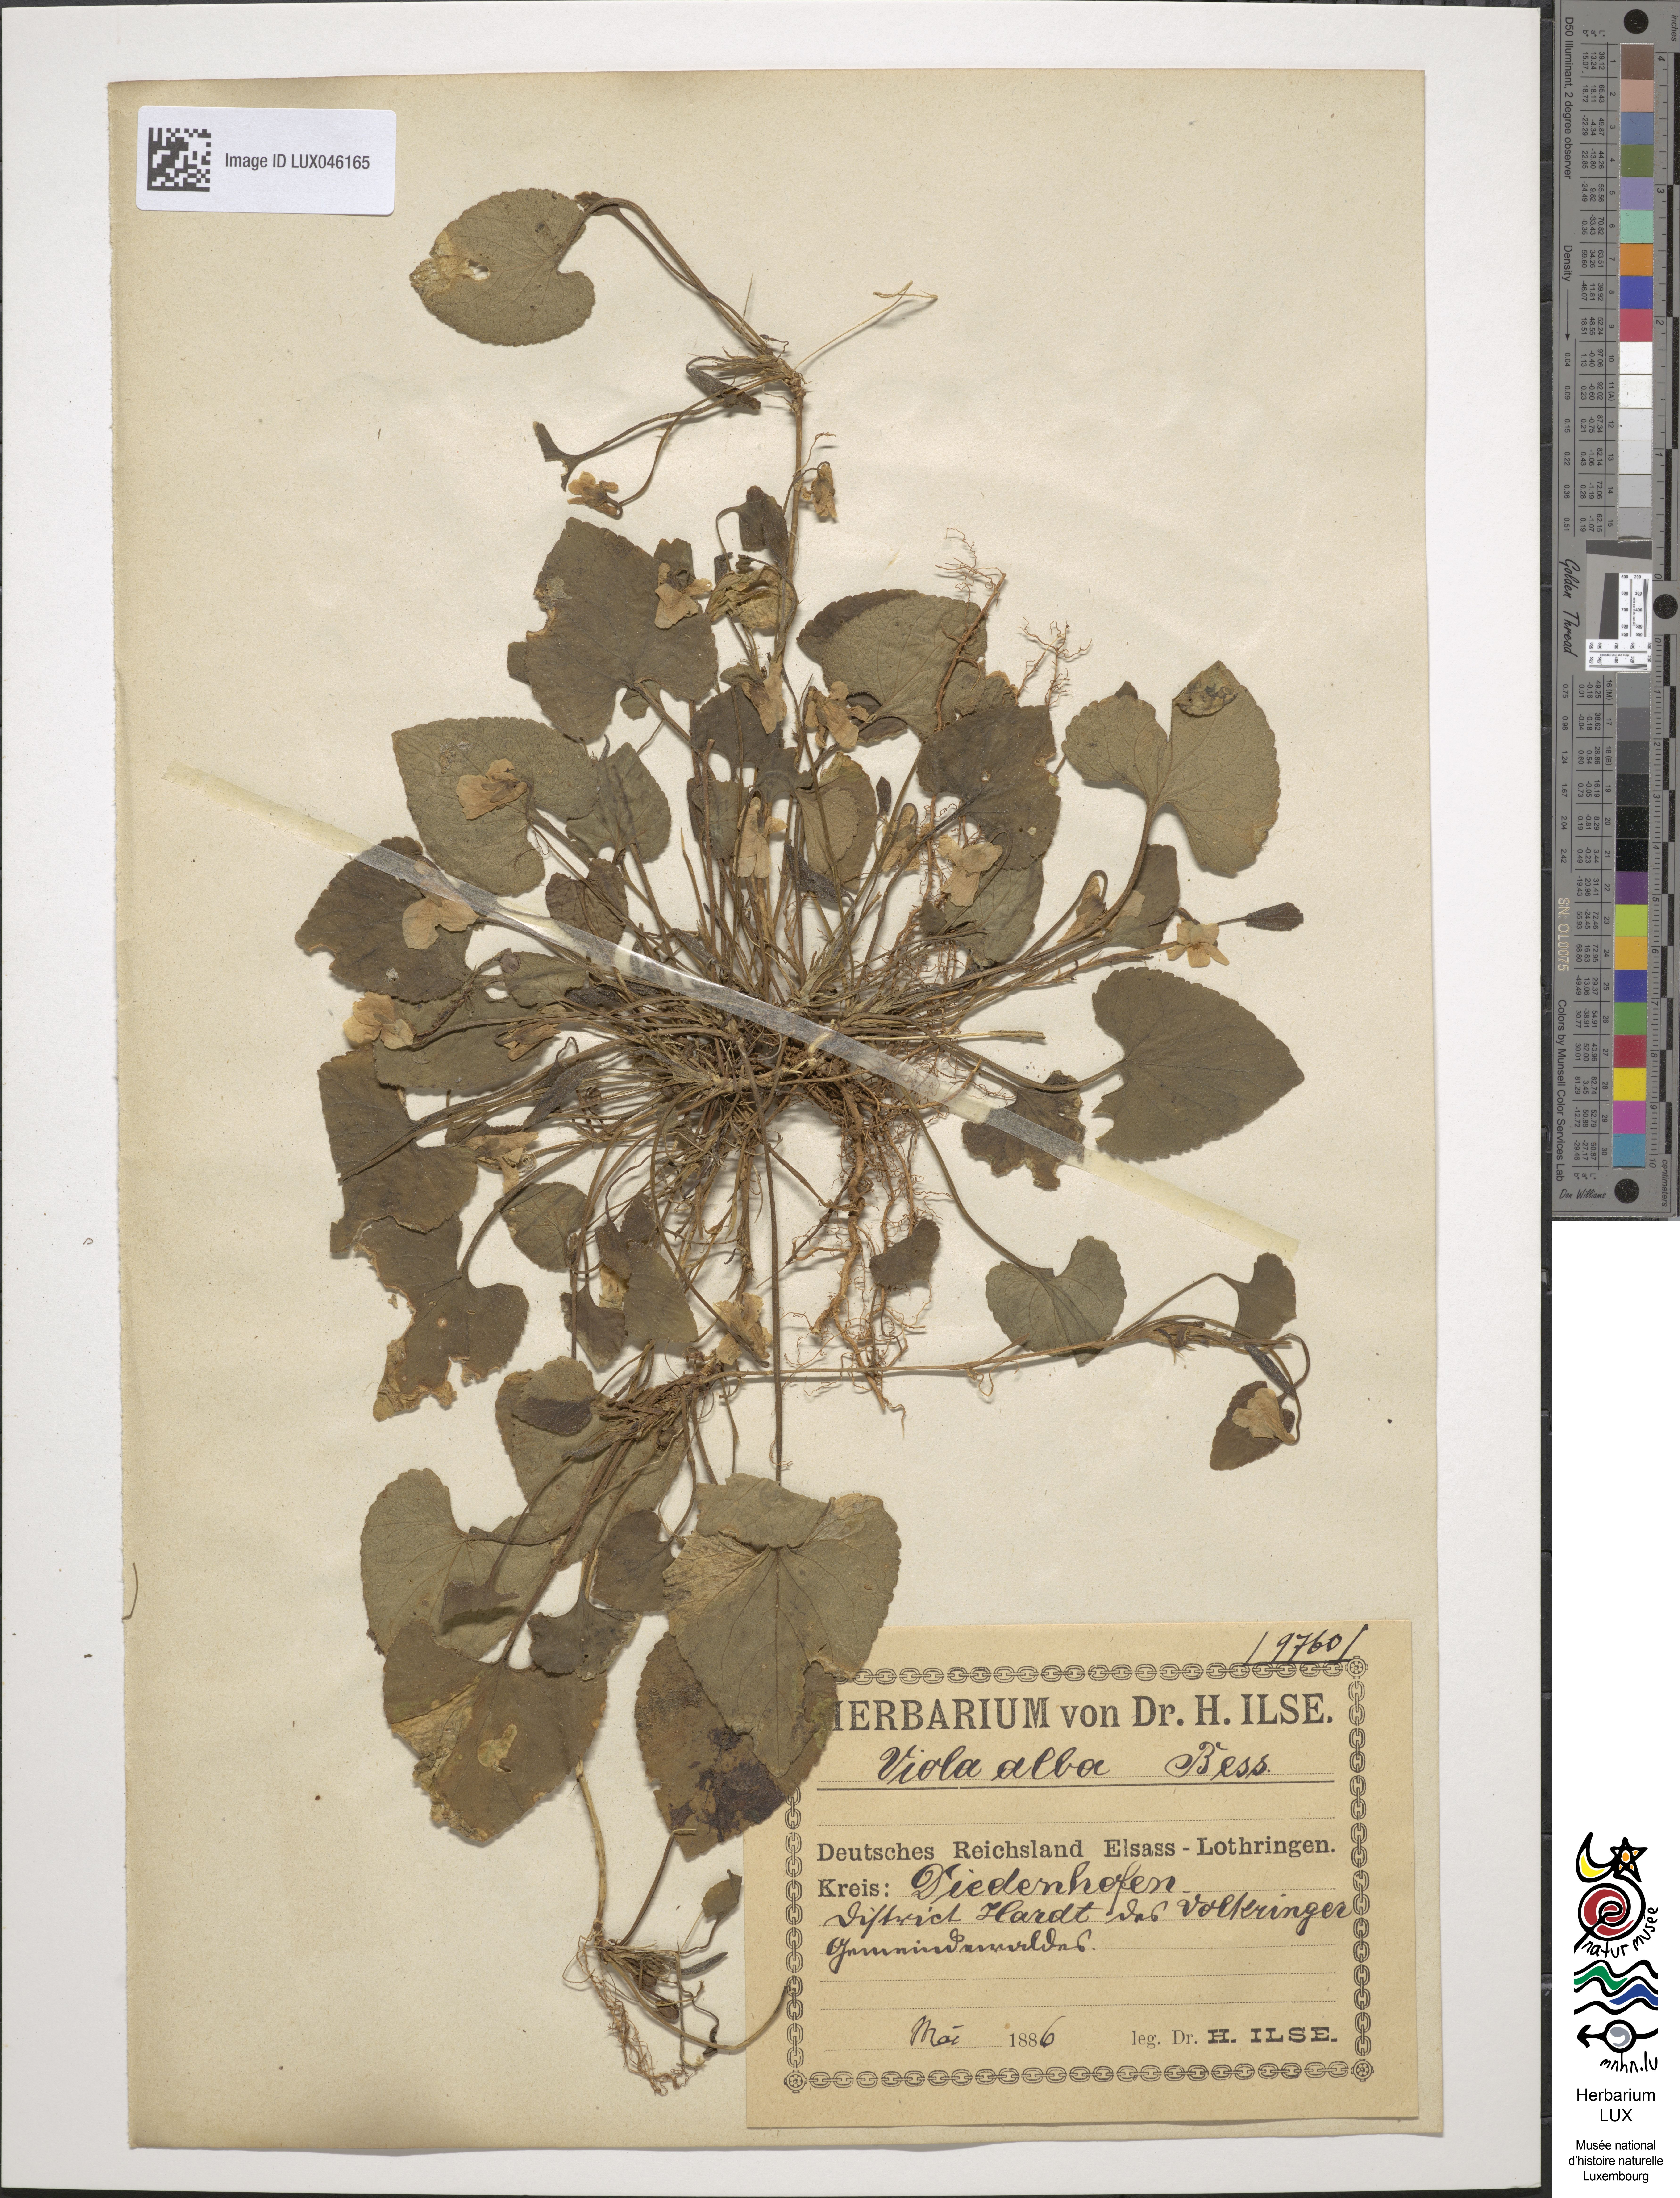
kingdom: Plantae
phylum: Tracheophyta
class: Magnoliopsida
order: Malpighiales
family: Violaceae
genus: Viola
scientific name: Viola alba
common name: White violet
